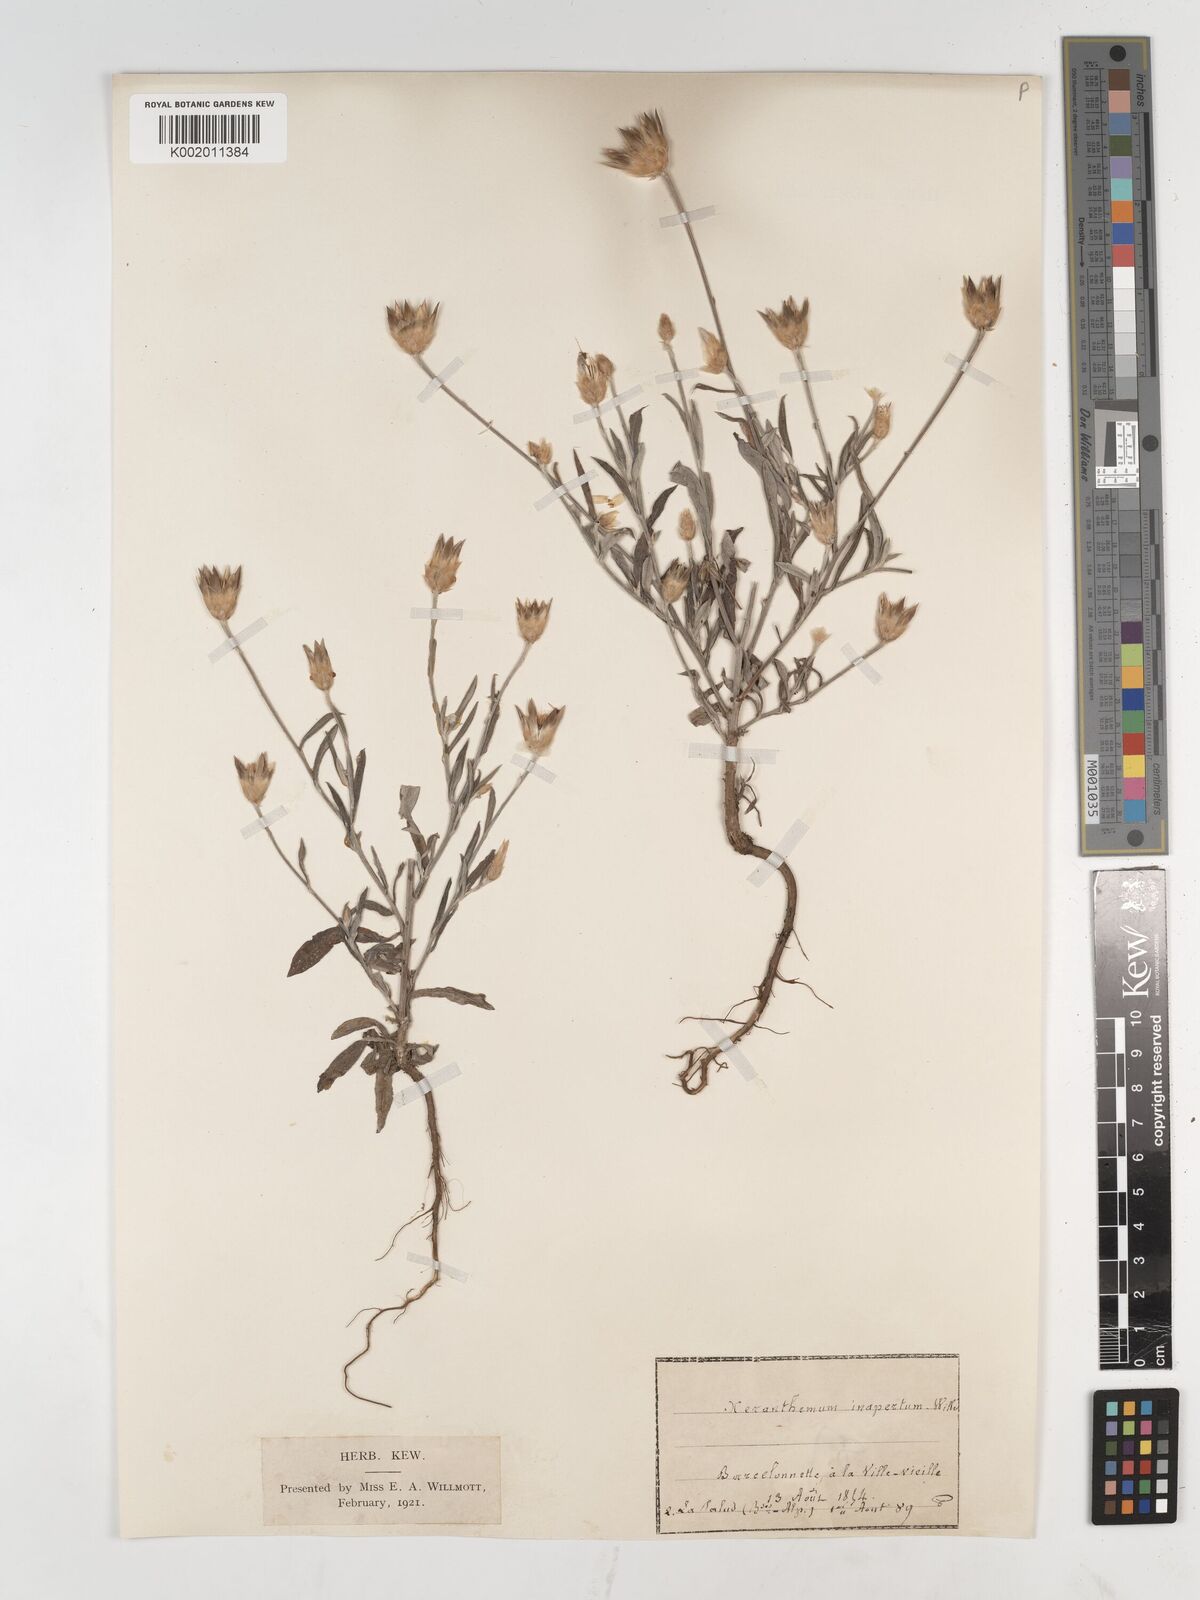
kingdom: Plantae
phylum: Tracheophyta
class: Magnoliopsida
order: Asterales
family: Asteraceae
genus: Xeranthemum
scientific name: Xeranthemum inapertum
